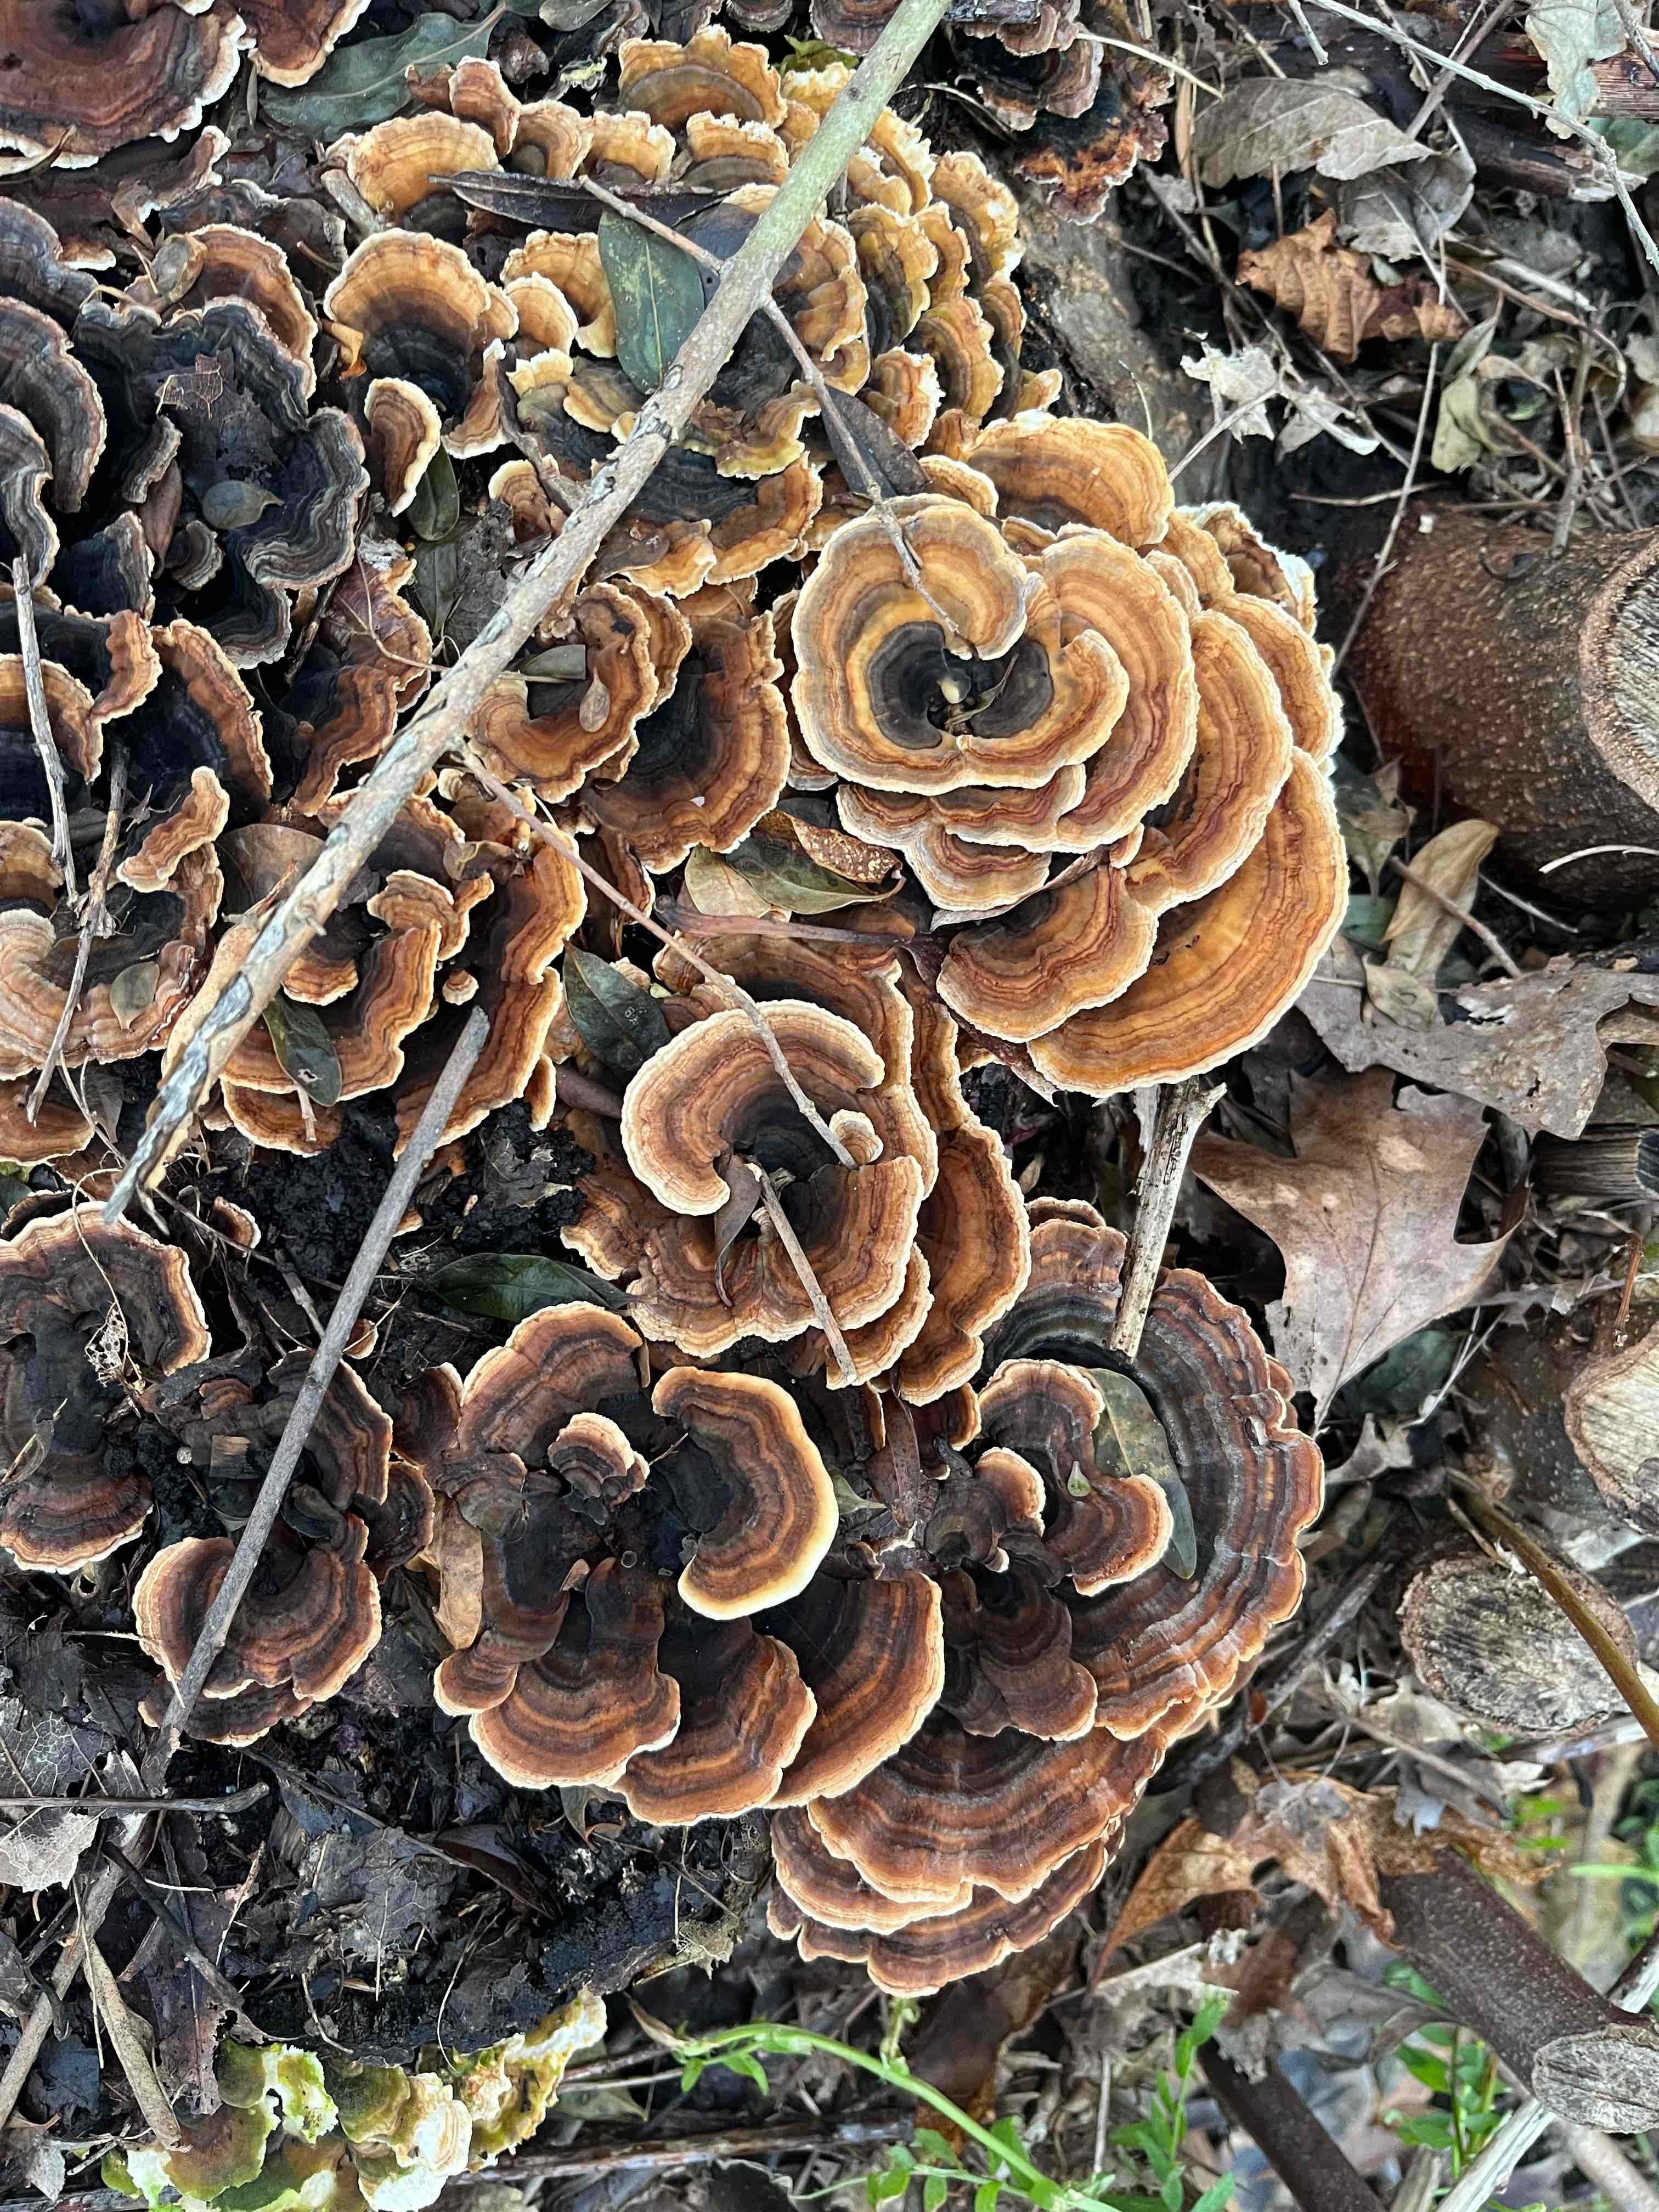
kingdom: Fungi
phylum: Basidiomycota
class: Agaricomycetes
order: Polyporales
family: Polyporaceae
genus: Trametes
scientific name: Trametes versicolor
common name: broget læderporesvamp
